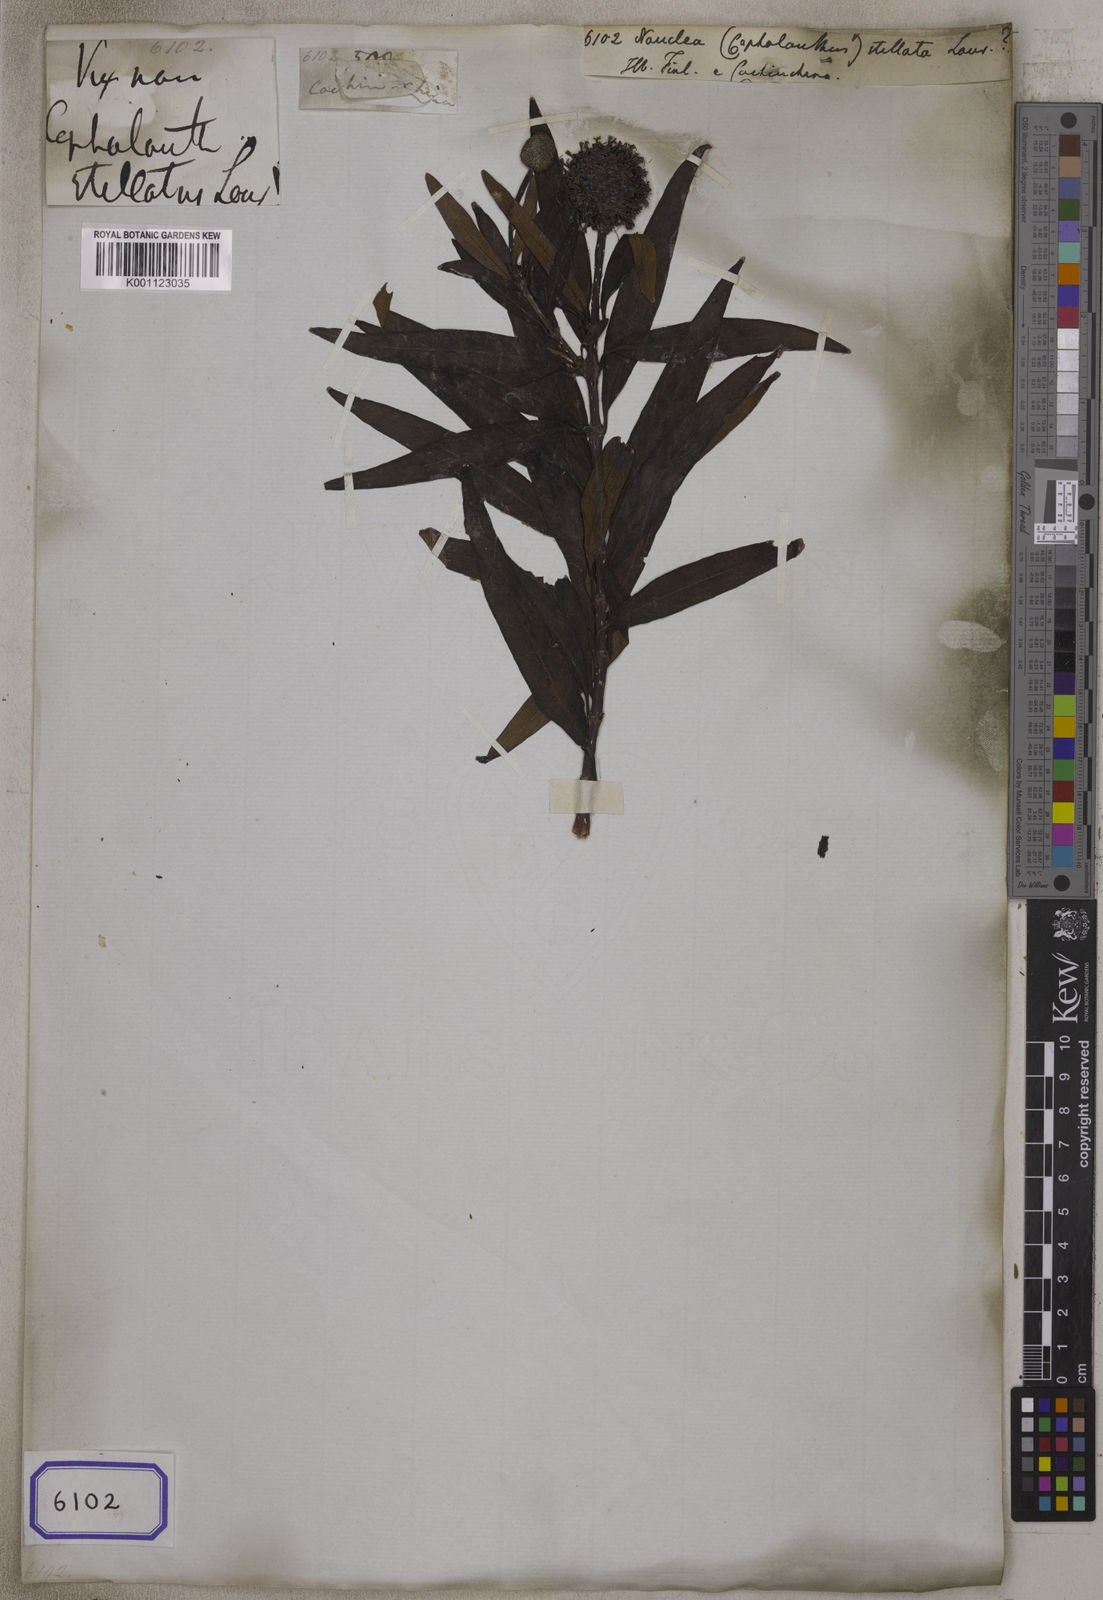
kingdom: Plantae
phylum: Tracheophyta
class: Magnoliopsida
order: Gentianales
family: Rubiaceae
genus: Cephalanthus
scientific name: Cephalanthus angustifolius
